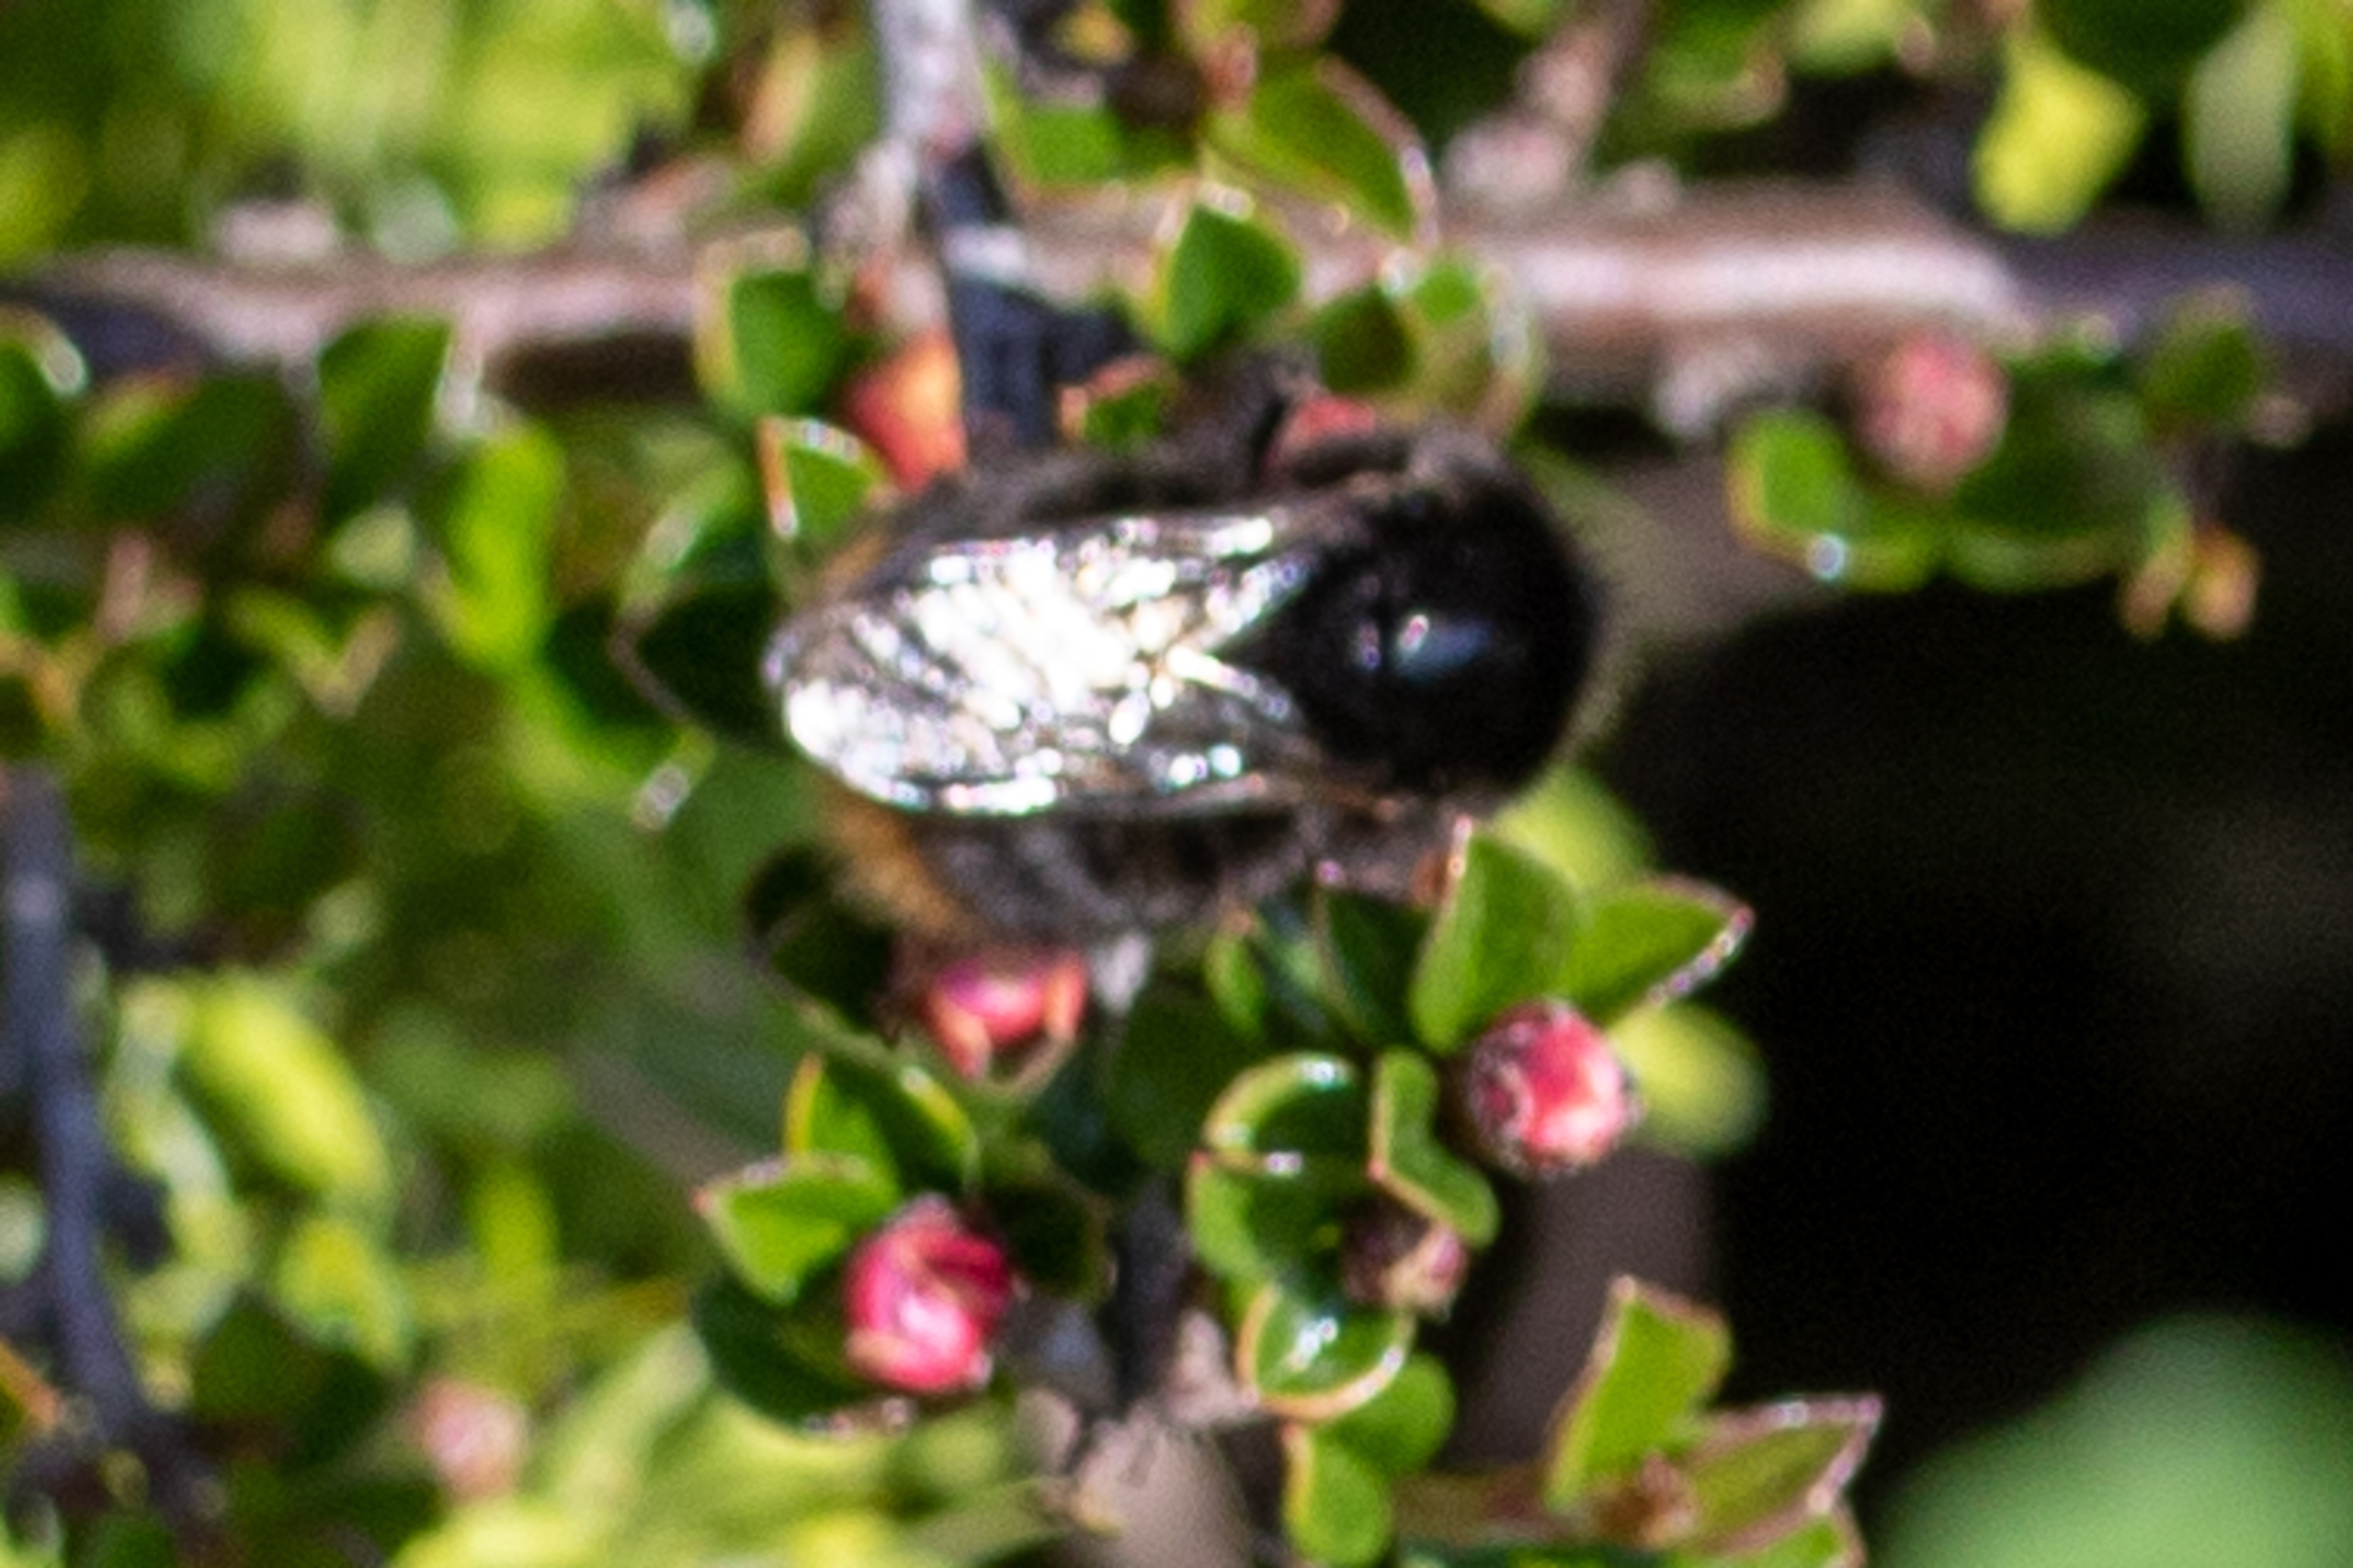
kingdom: Animalia
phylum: Arthropoda
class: Insecta
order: Hymenoptera
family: Apidae
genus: Bombus
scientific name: Bombus lapidarius
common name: Stenhumle
